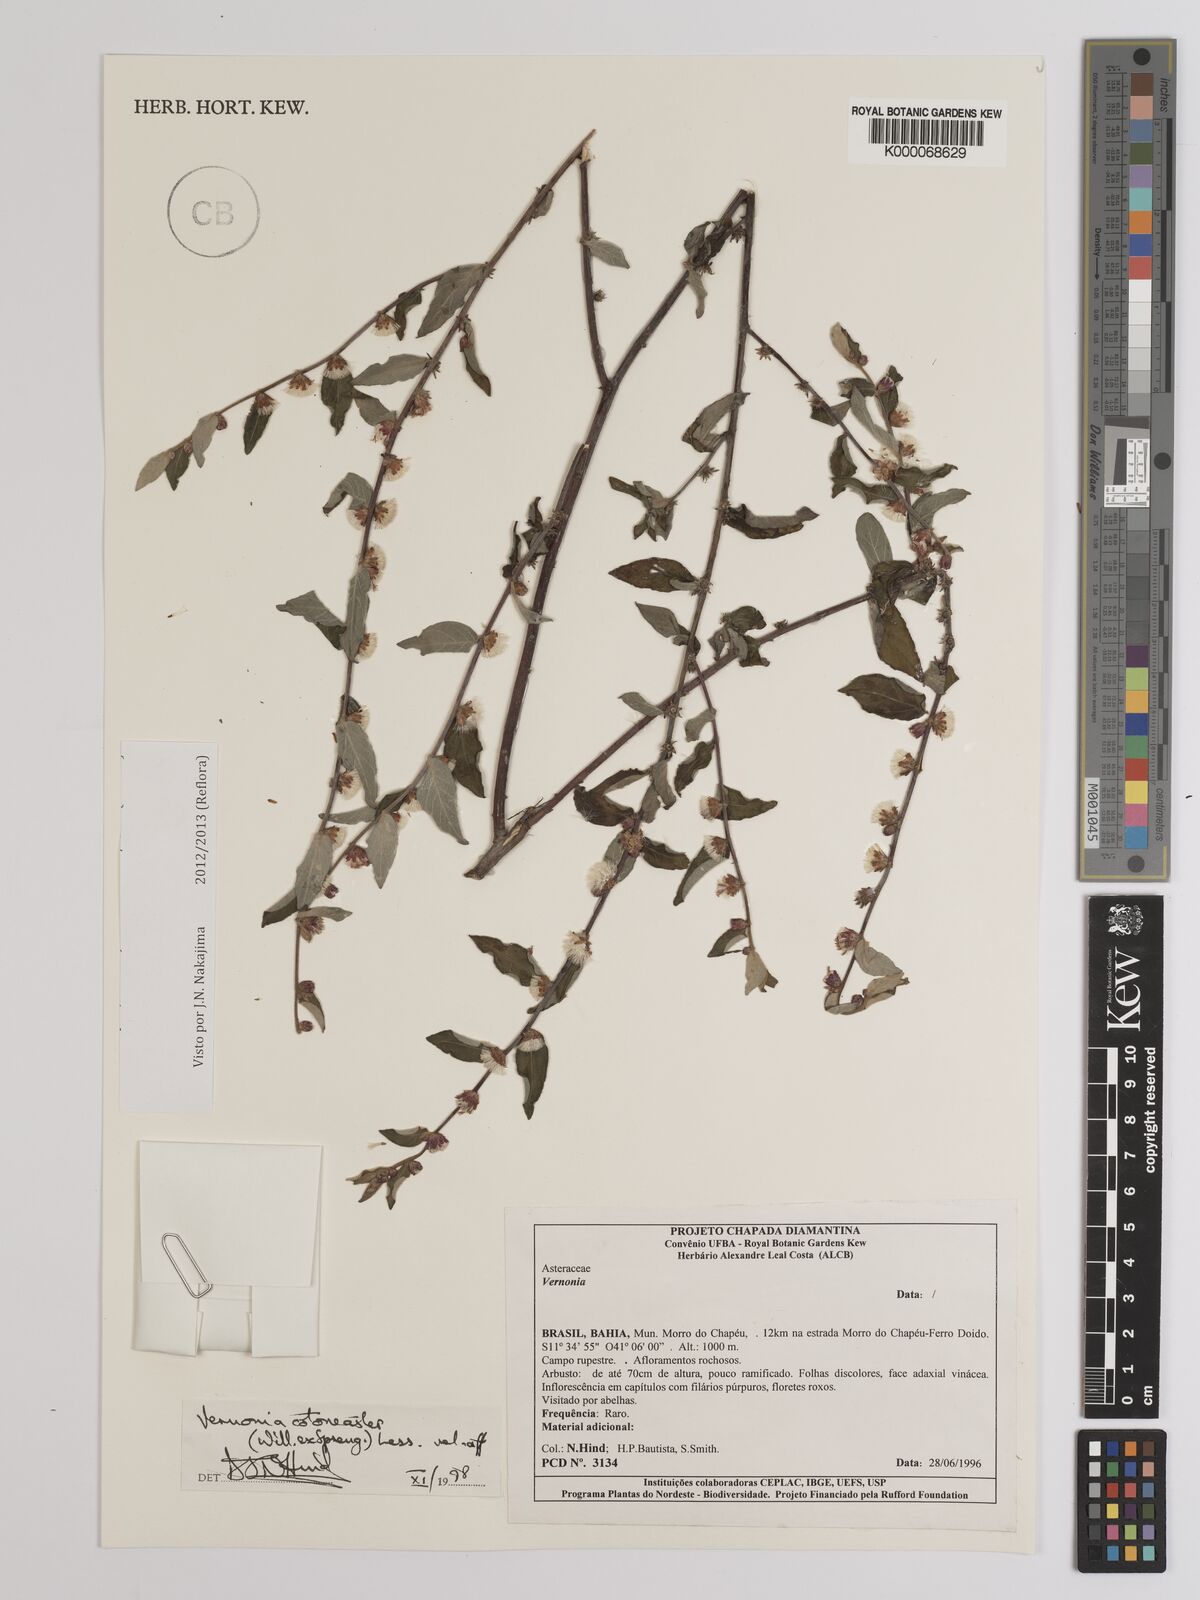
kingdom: Plantae
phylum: Tracheophyta
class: Magnoliopsida
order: Asterales
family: Asteraceae
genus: Lepidaploa
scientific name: Lepidaploa cotoneaster
